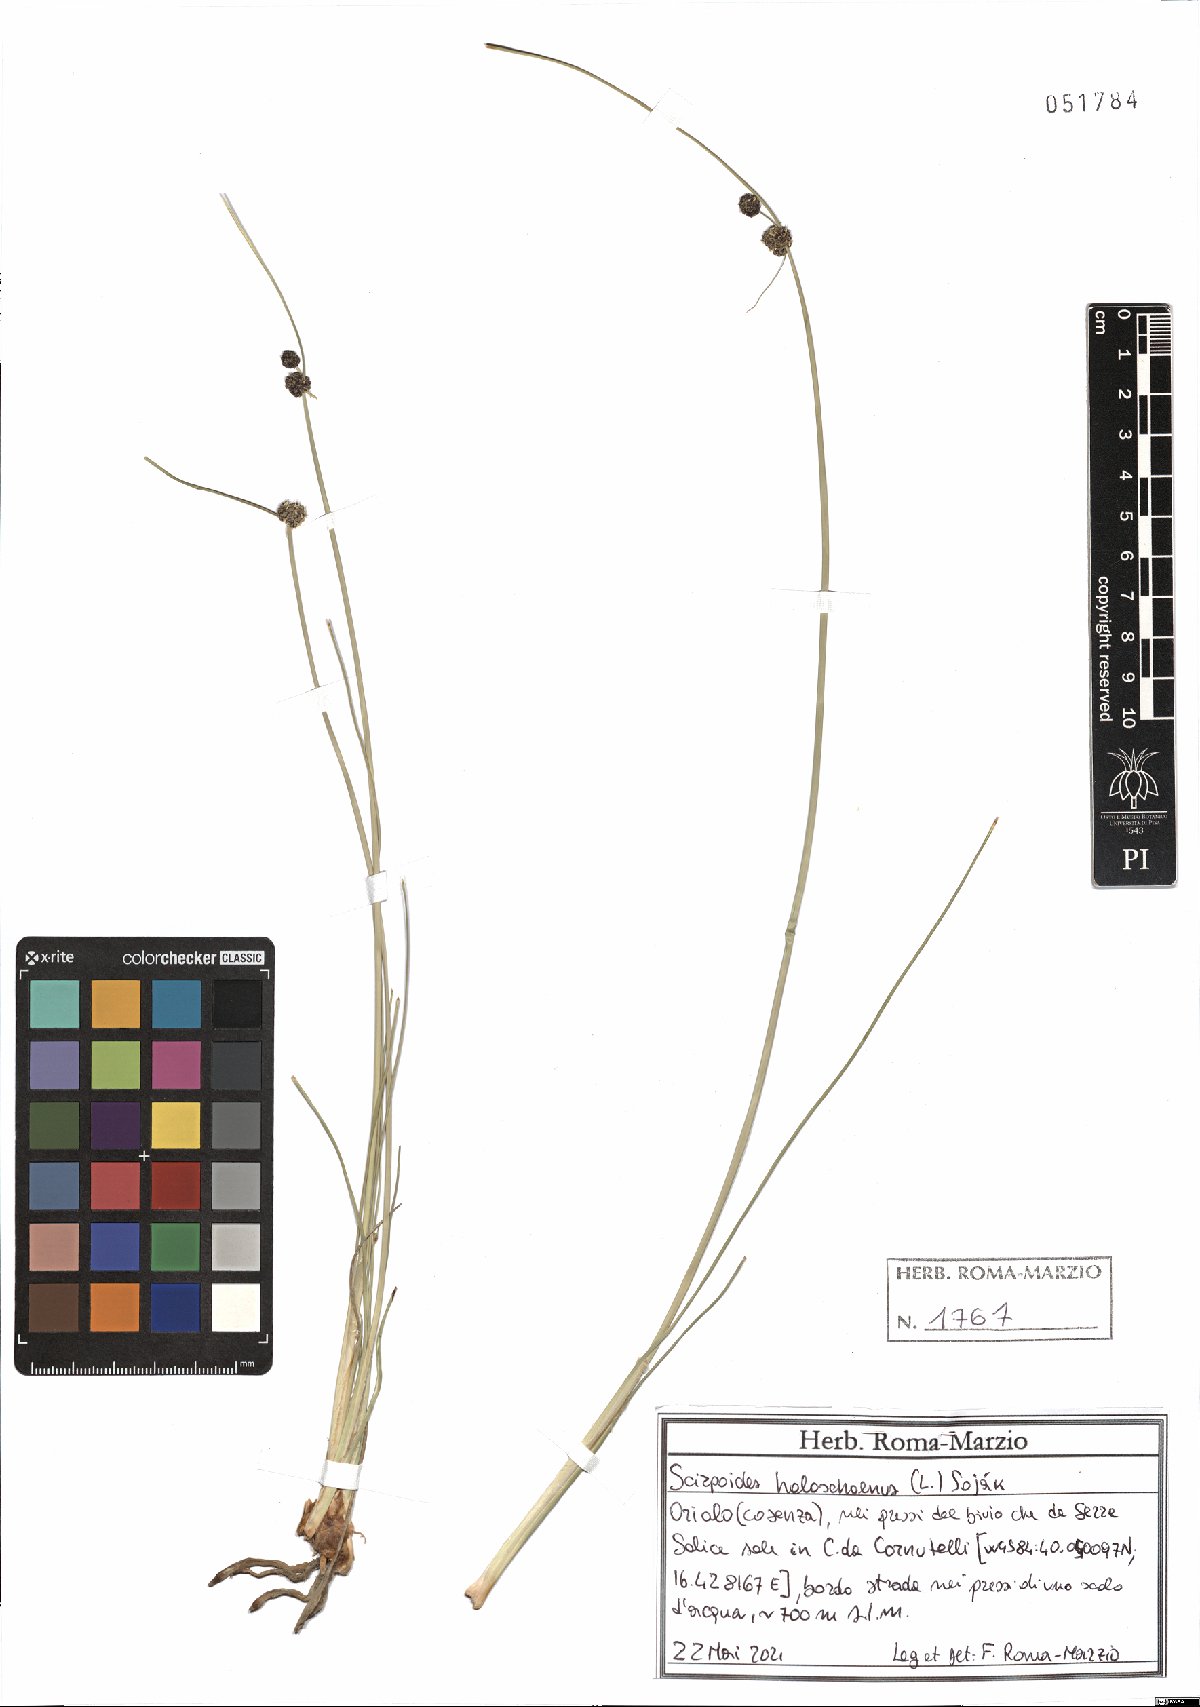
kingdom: Plantae
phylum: Tracheophyta
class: Liliopsida
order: Poales
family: Cyperaceae
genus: Scirpoides
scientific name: Scirpoides holoschoenus
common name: Round-headed club-rush
